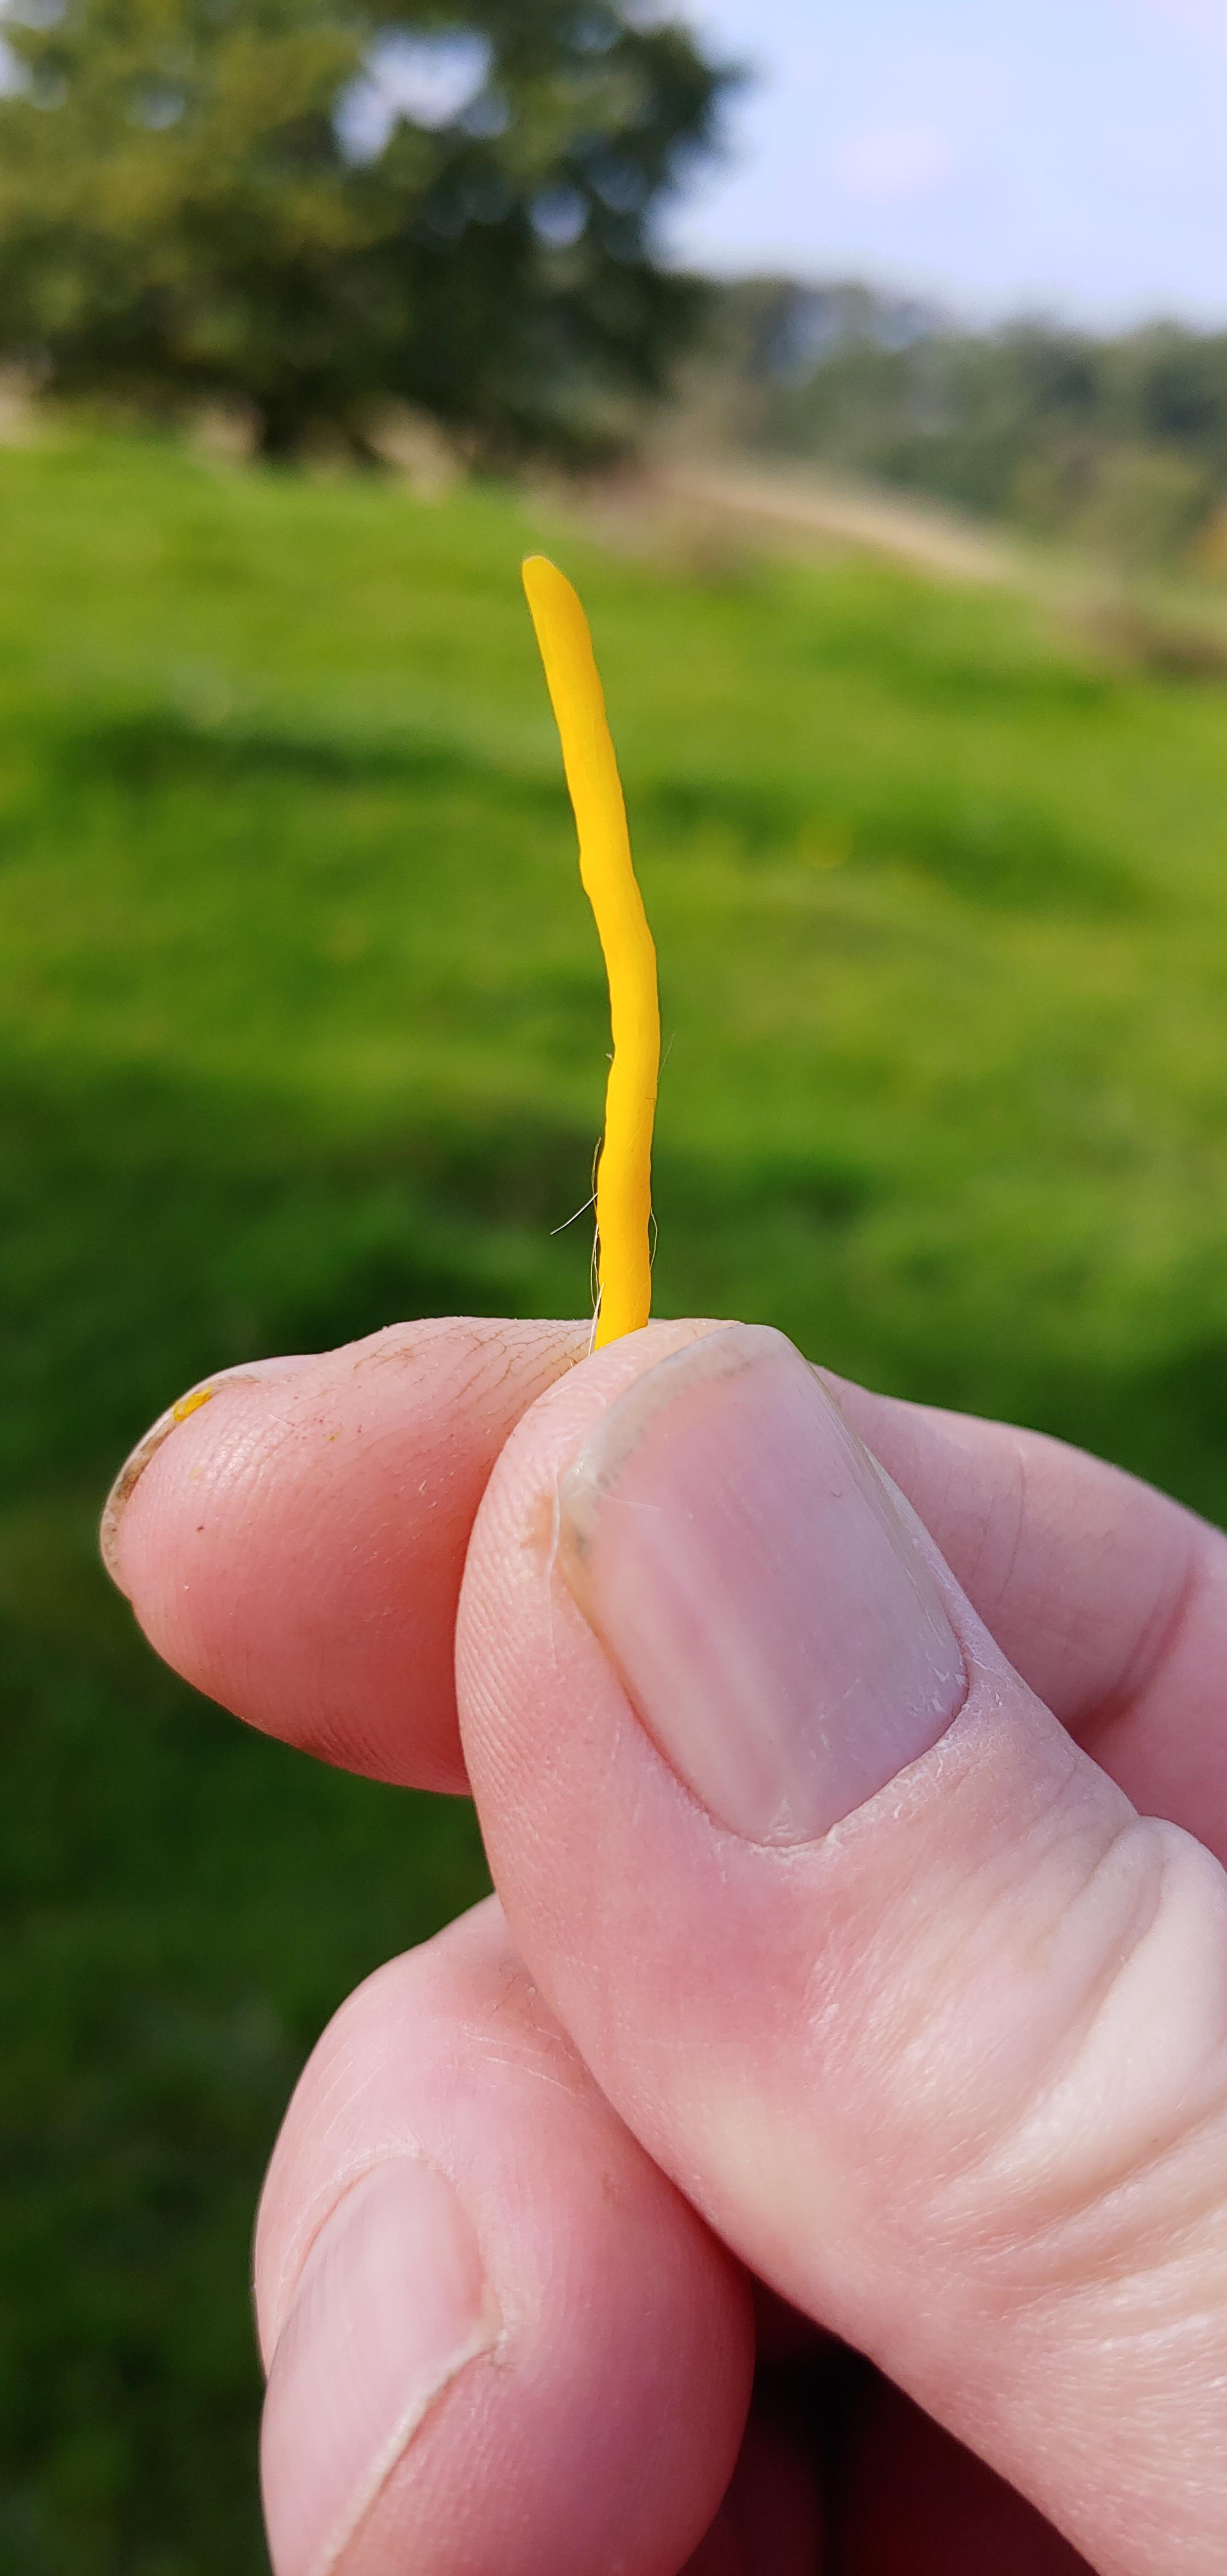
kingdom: Fungi
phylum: Basidiomycota
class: Agaricomycetes
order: Agaricales
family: Clavariaceae
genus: Clavulinopsis
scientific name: Clavulinopsis
